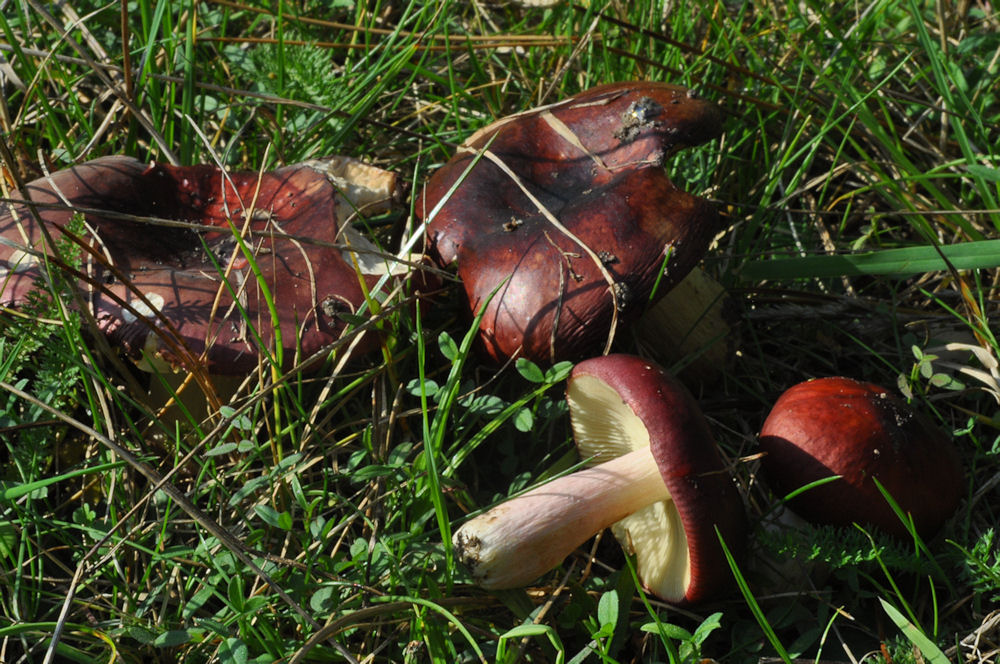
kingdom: Fungi
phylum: Basidiomycota
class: Agaricomycetes
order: Russulales
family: Russulaceae
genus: Russula
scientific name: Russula xerampelina
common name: hummer-skørhat
